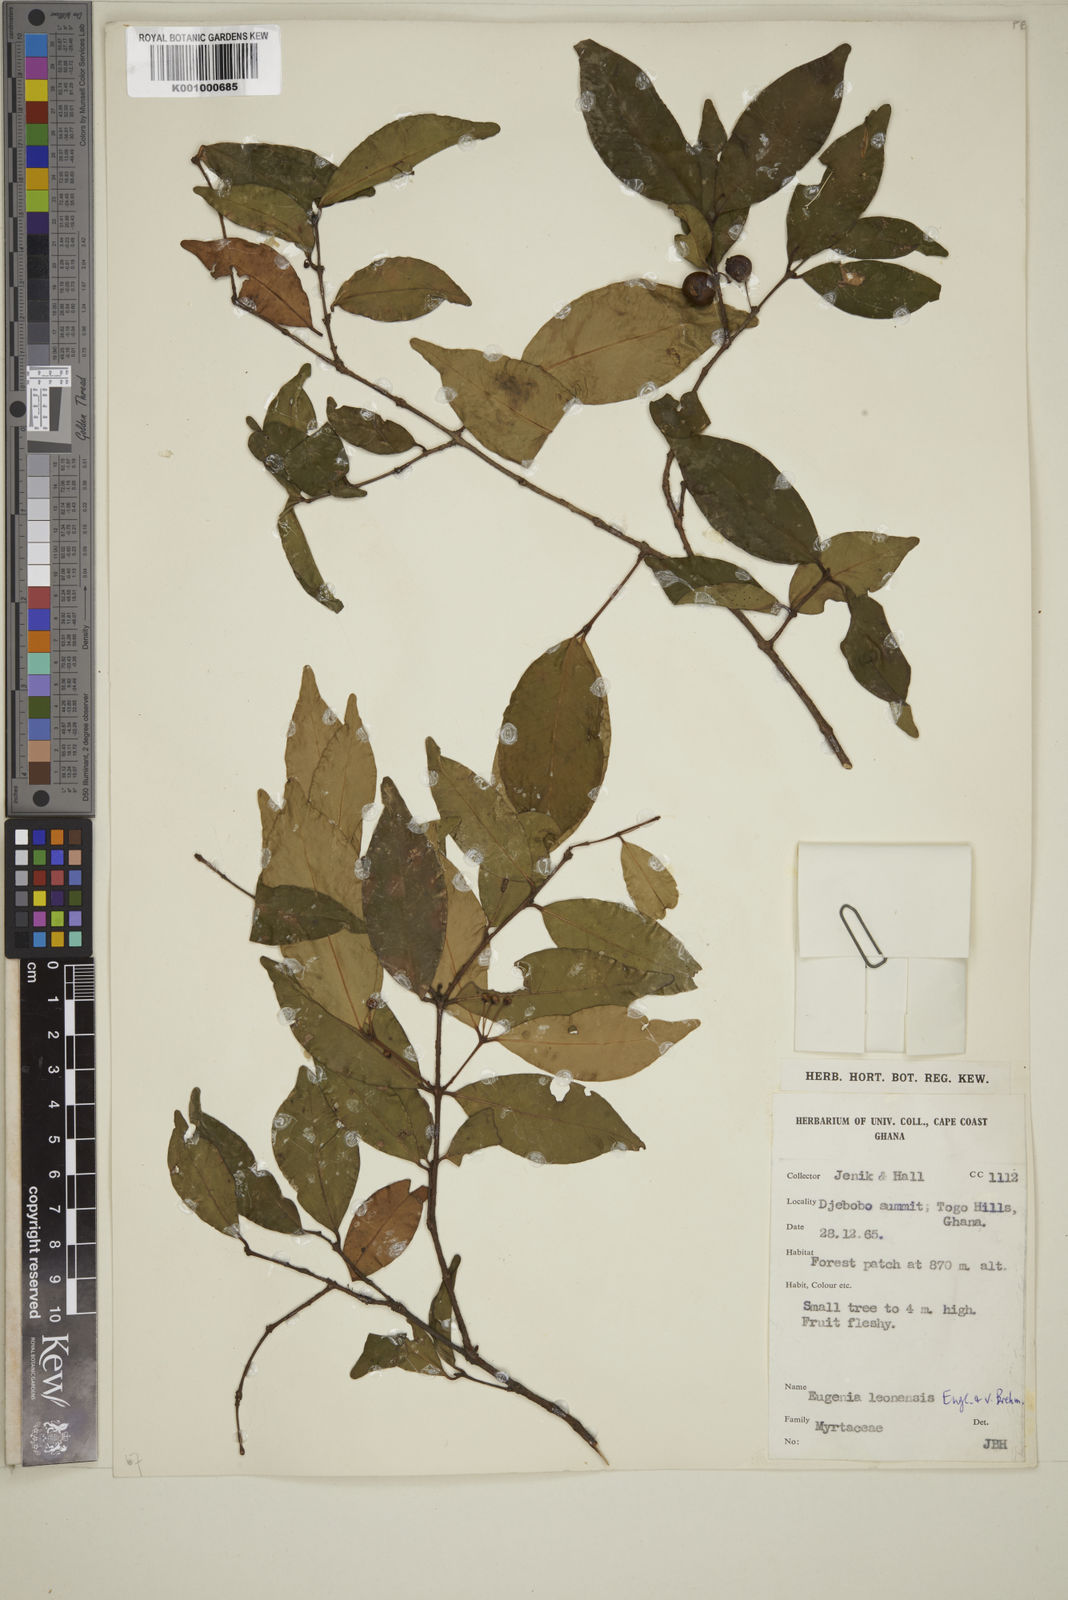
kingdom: Plantae
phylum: Tracheophyta
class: Magnoliopsida
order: Myrtales
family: Myrtaceae
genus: Eugenia
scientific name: Eugenia leonensis
